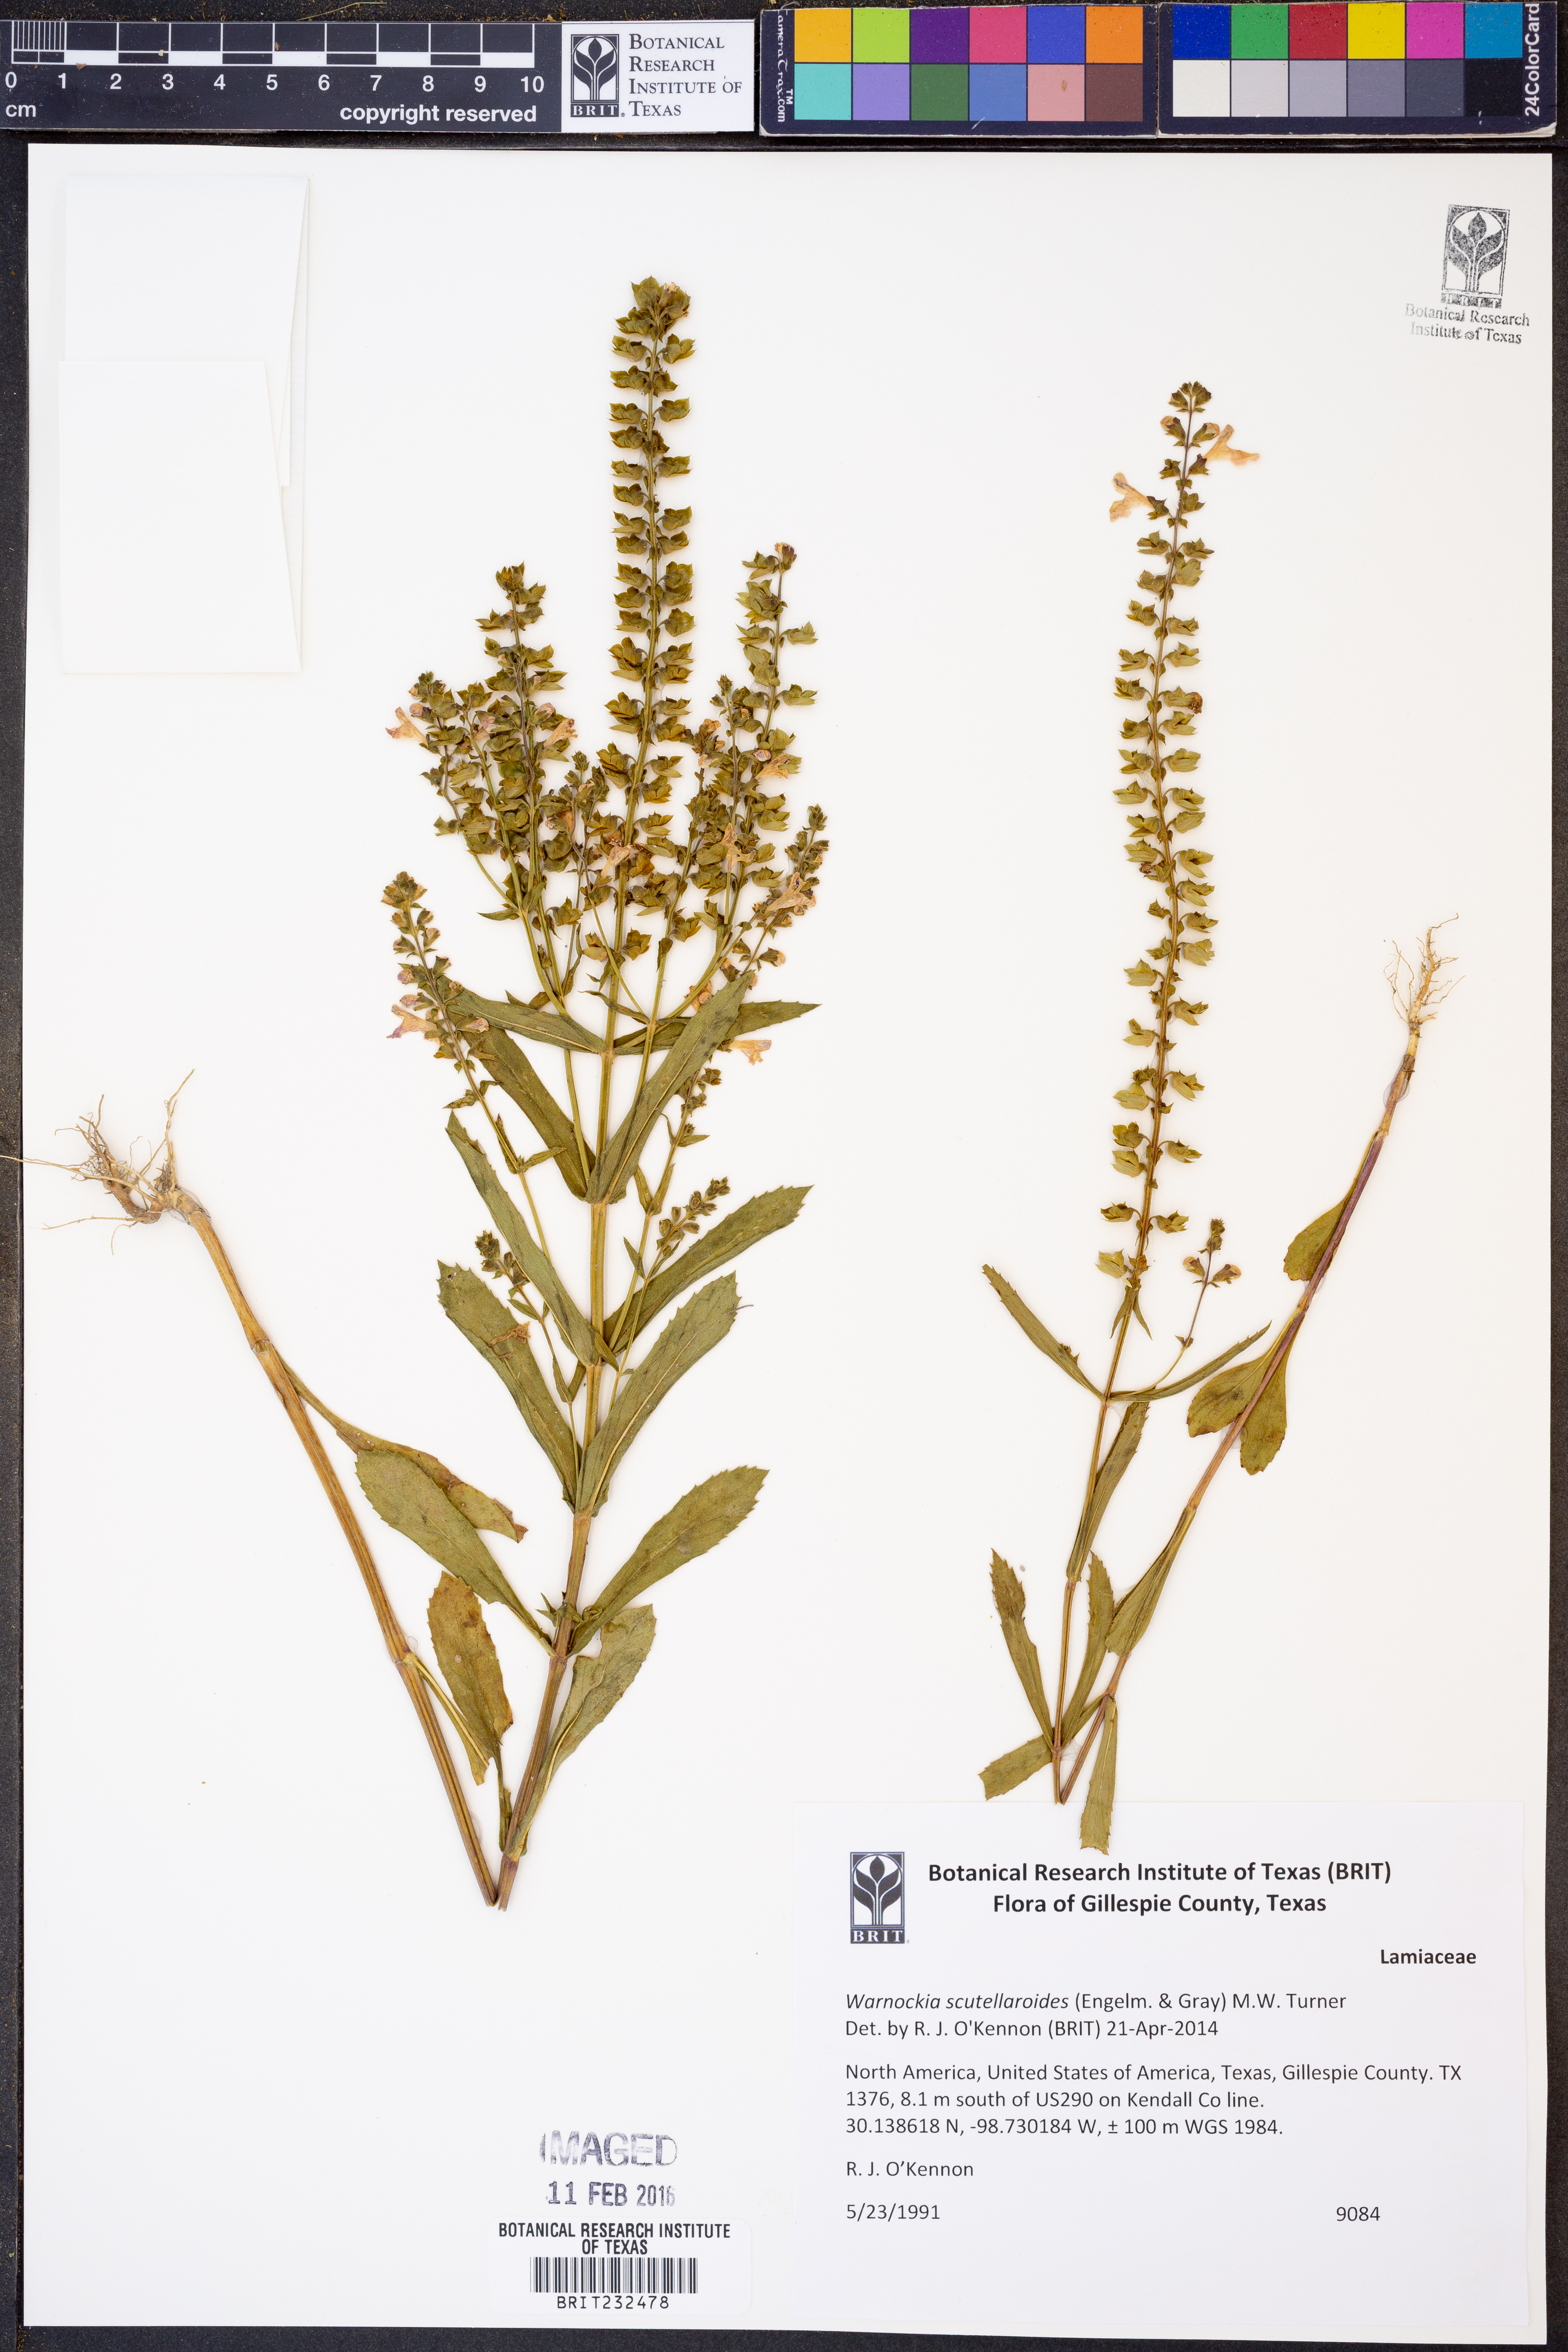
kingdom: Plantae
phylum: Tracheophyta
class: Magnoliopsida
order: Lamiales
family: Lamiaceae
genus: Warnockia
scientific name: Warnockia scutellarioides
